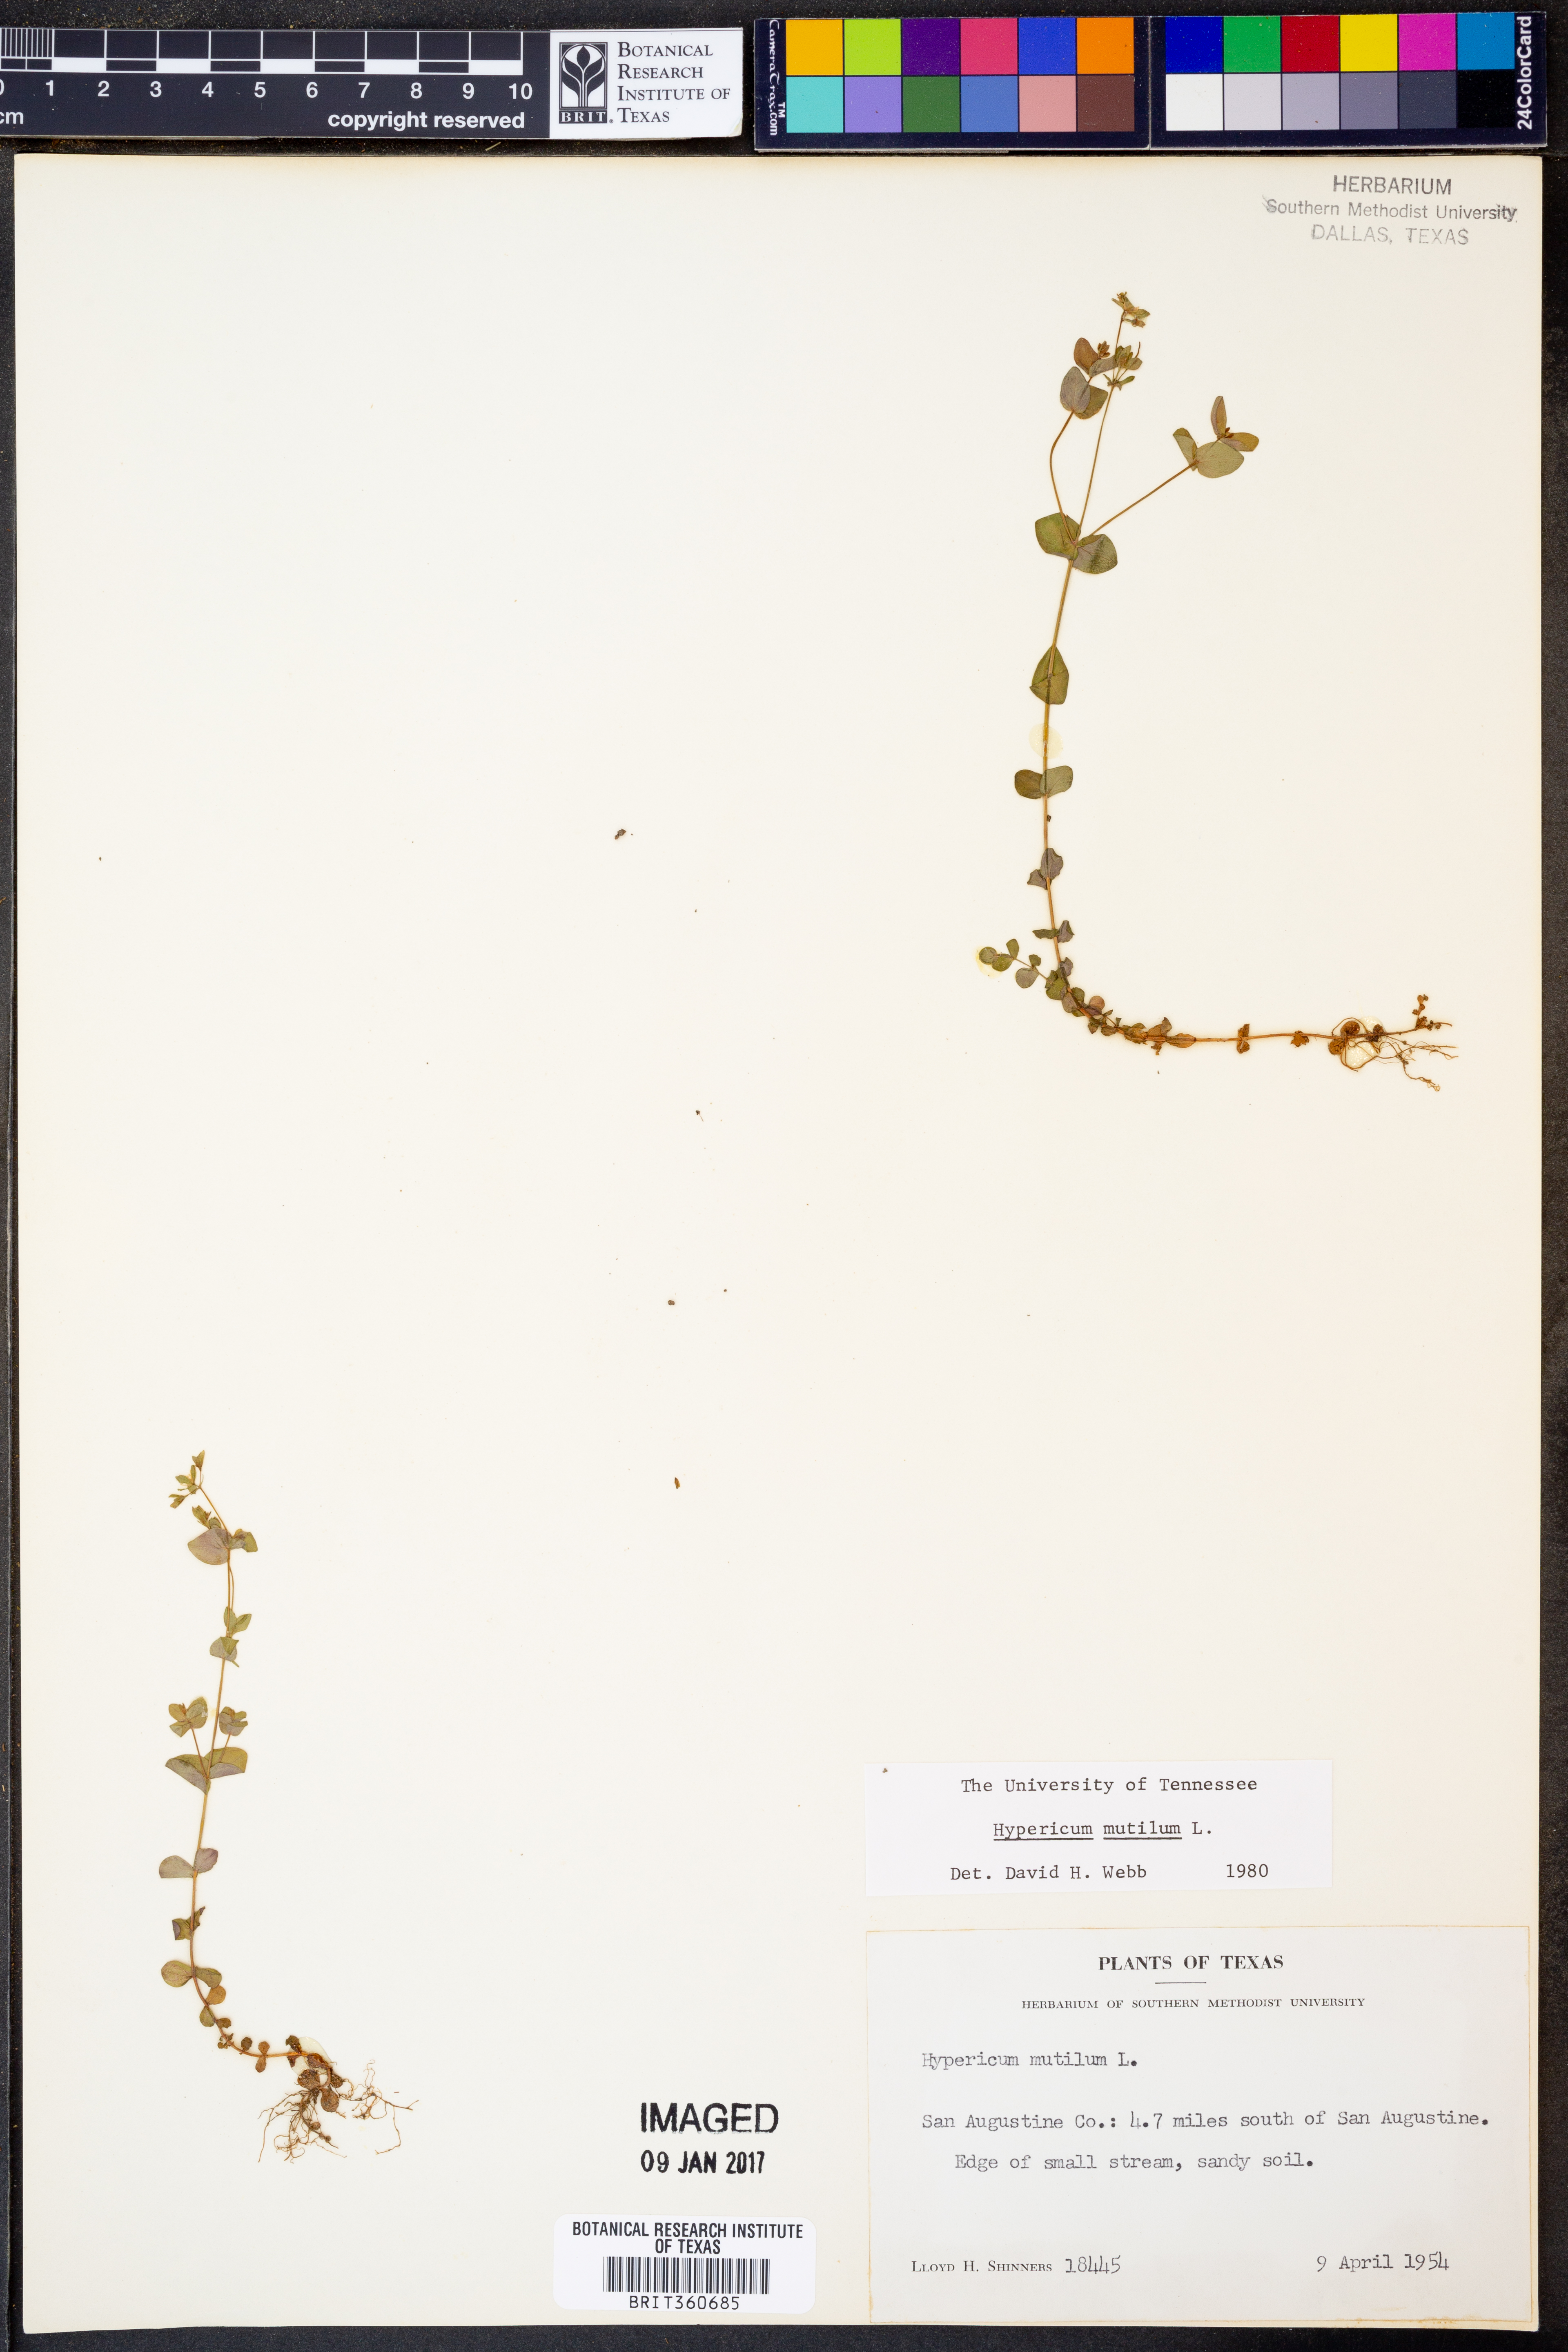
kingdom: Plantae
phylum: Tracheophyta
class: Magnoliopsida
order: Malpighiales
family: Hypericaceae
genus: Hypericum
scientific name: Hypericum mutilum
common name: Dwarf st. john's-wort
